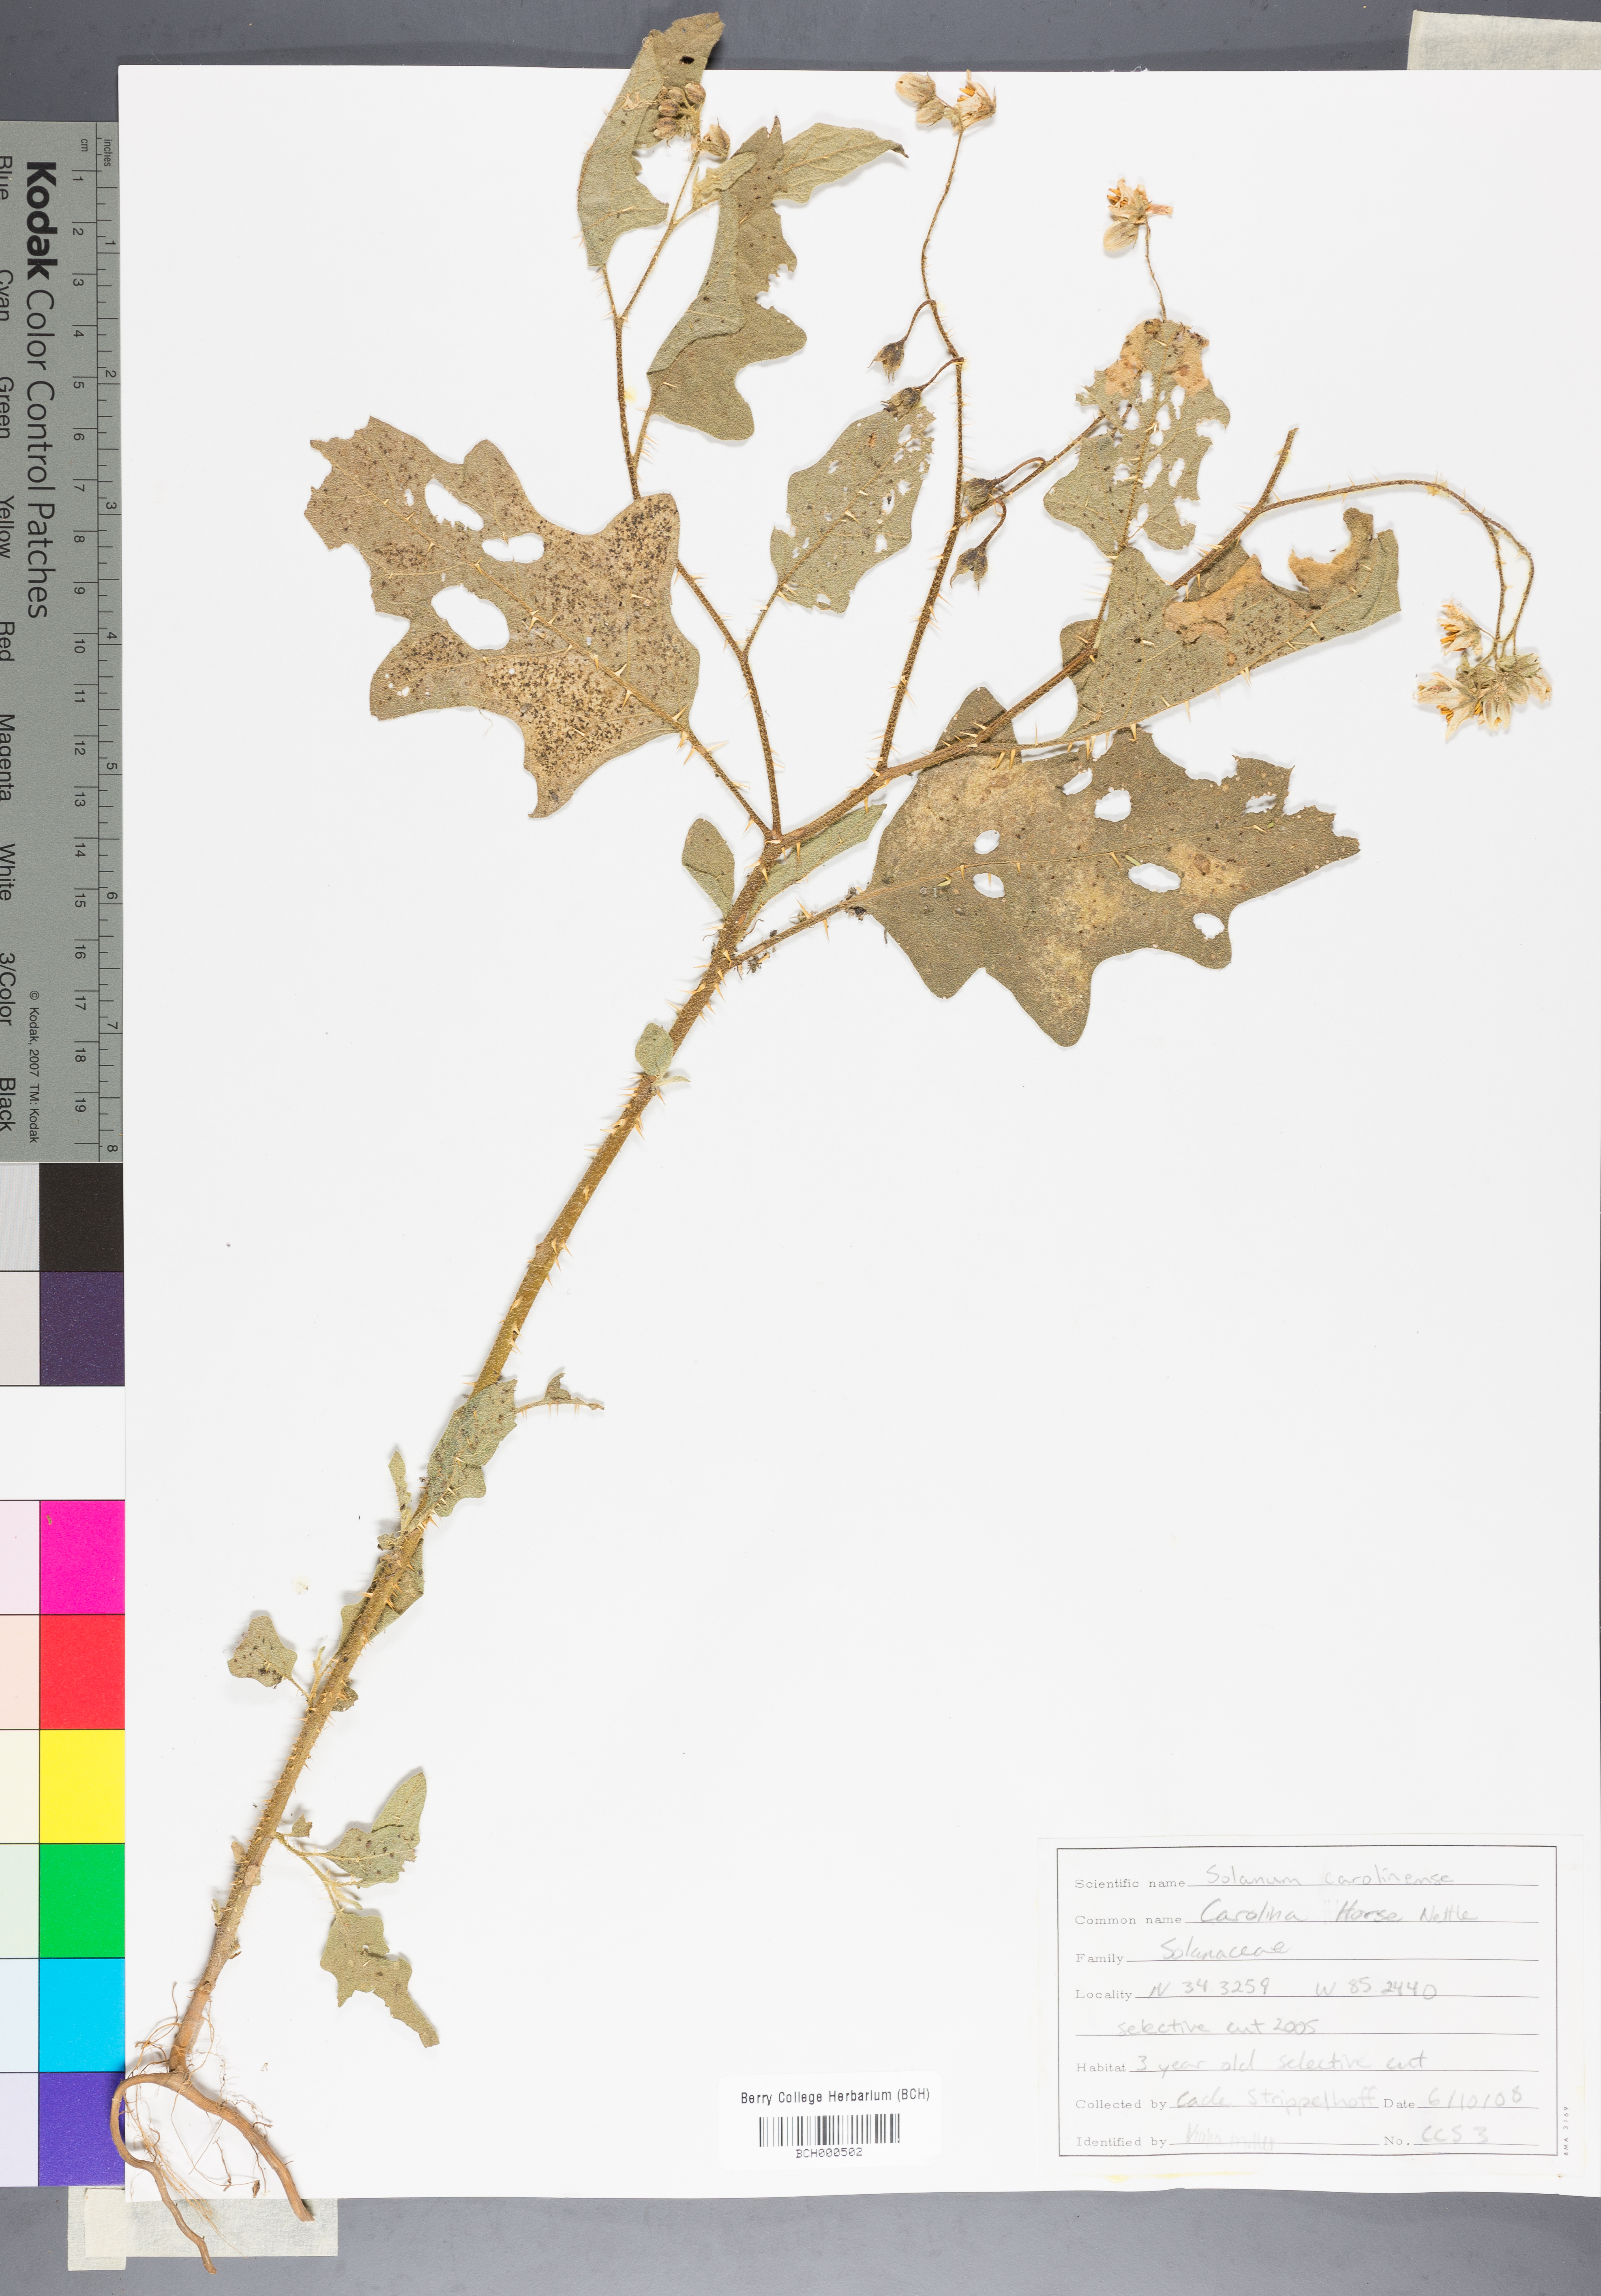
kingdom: Plantae
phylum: Tracheophyta
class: Magnoliopsida
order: Solanales
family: Solanaceae
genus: Solanum
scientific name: Solanum carolinense
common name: Horse-nettle
